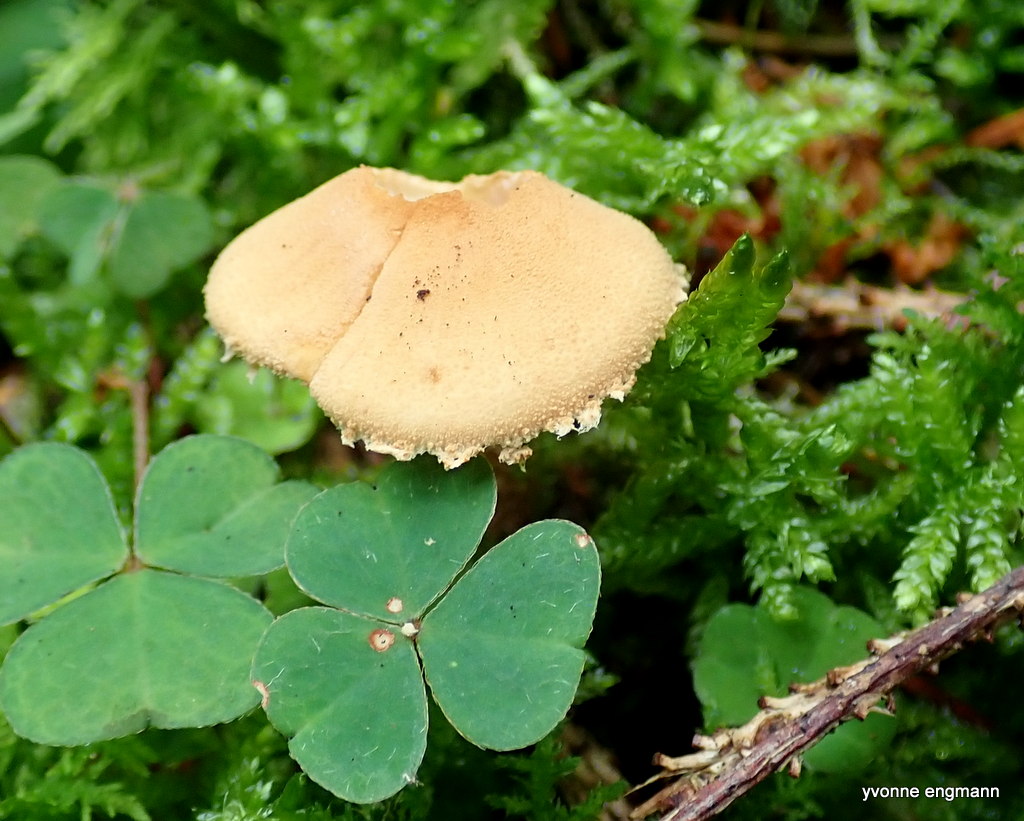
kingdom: Fungi
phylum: Basidiomycota
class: Agaricomycetes
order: Agaricales
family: Tricholomataceae
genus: Cystoderma
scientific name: Cystoderma amianthinum
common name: okkergul grynhat
